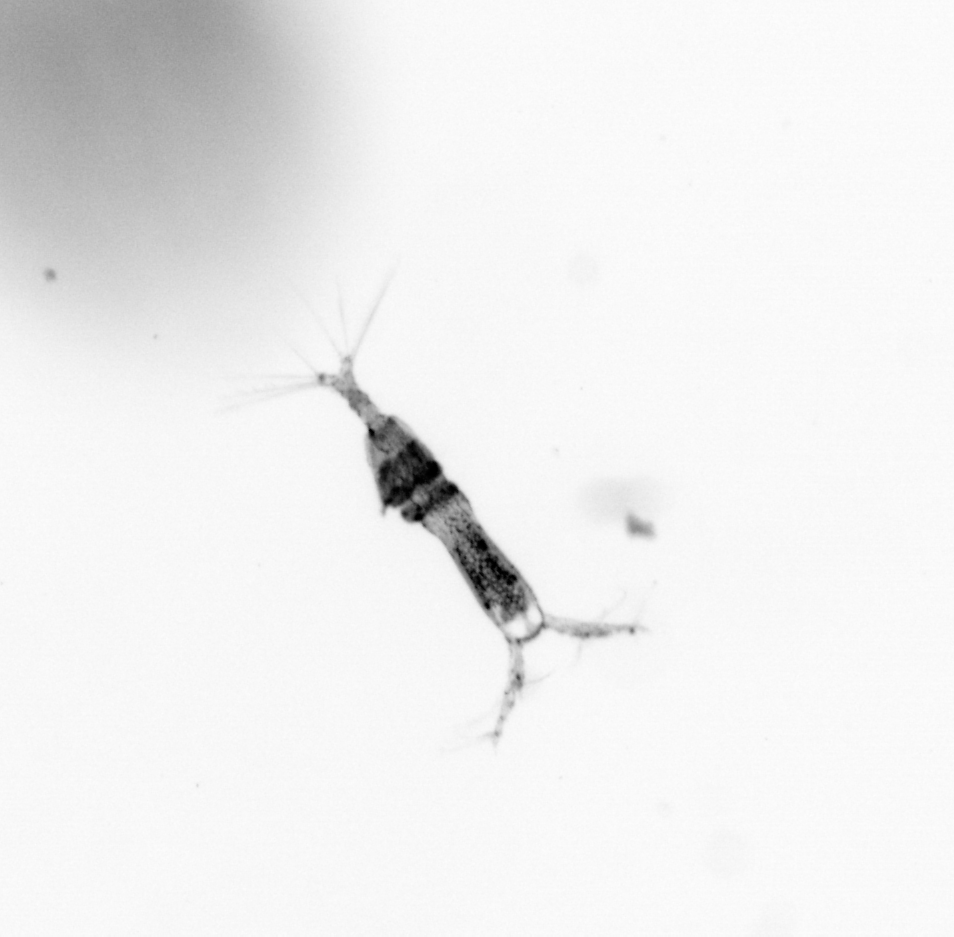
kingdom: Animalia
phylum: Arthropoda
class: Copepoda
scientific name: Copepoda
